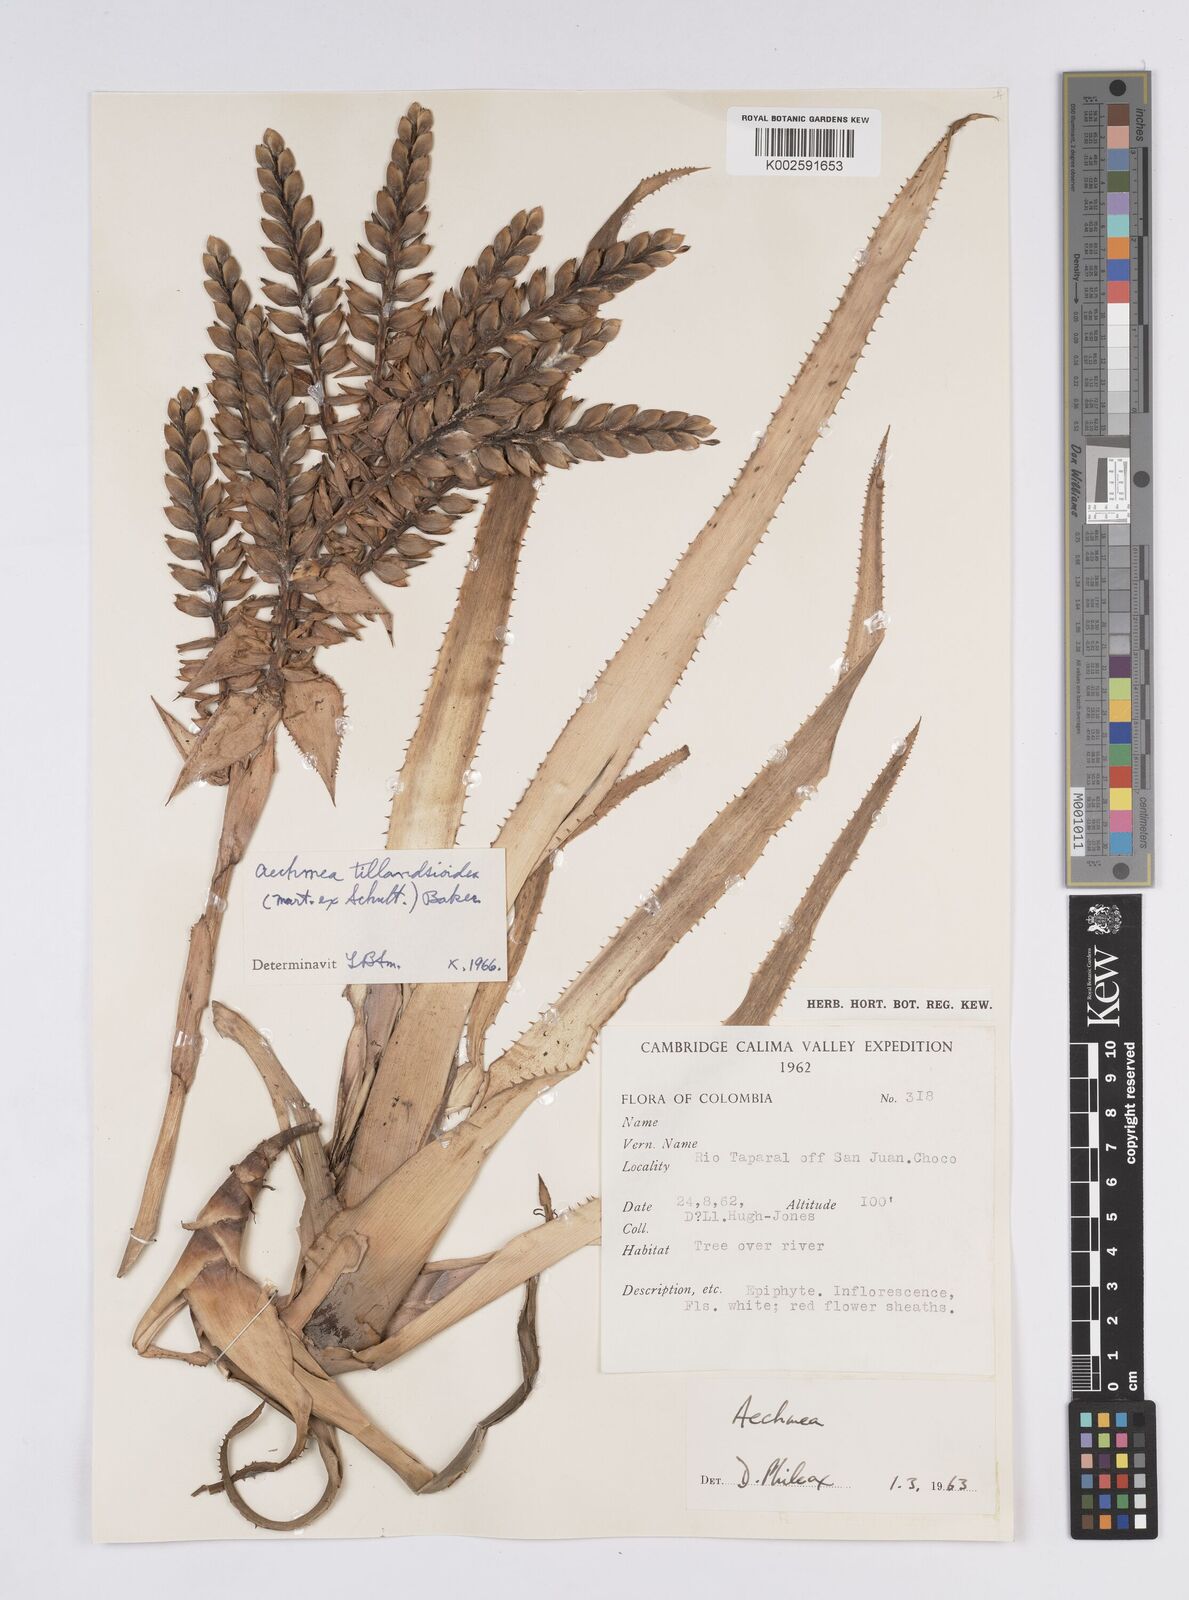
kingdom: Plantae
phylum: Tracheophyta
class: Liliopsida
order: Poales
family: Bromeliaceae
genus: Aechmea
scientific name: Aechmea tillandsioides
